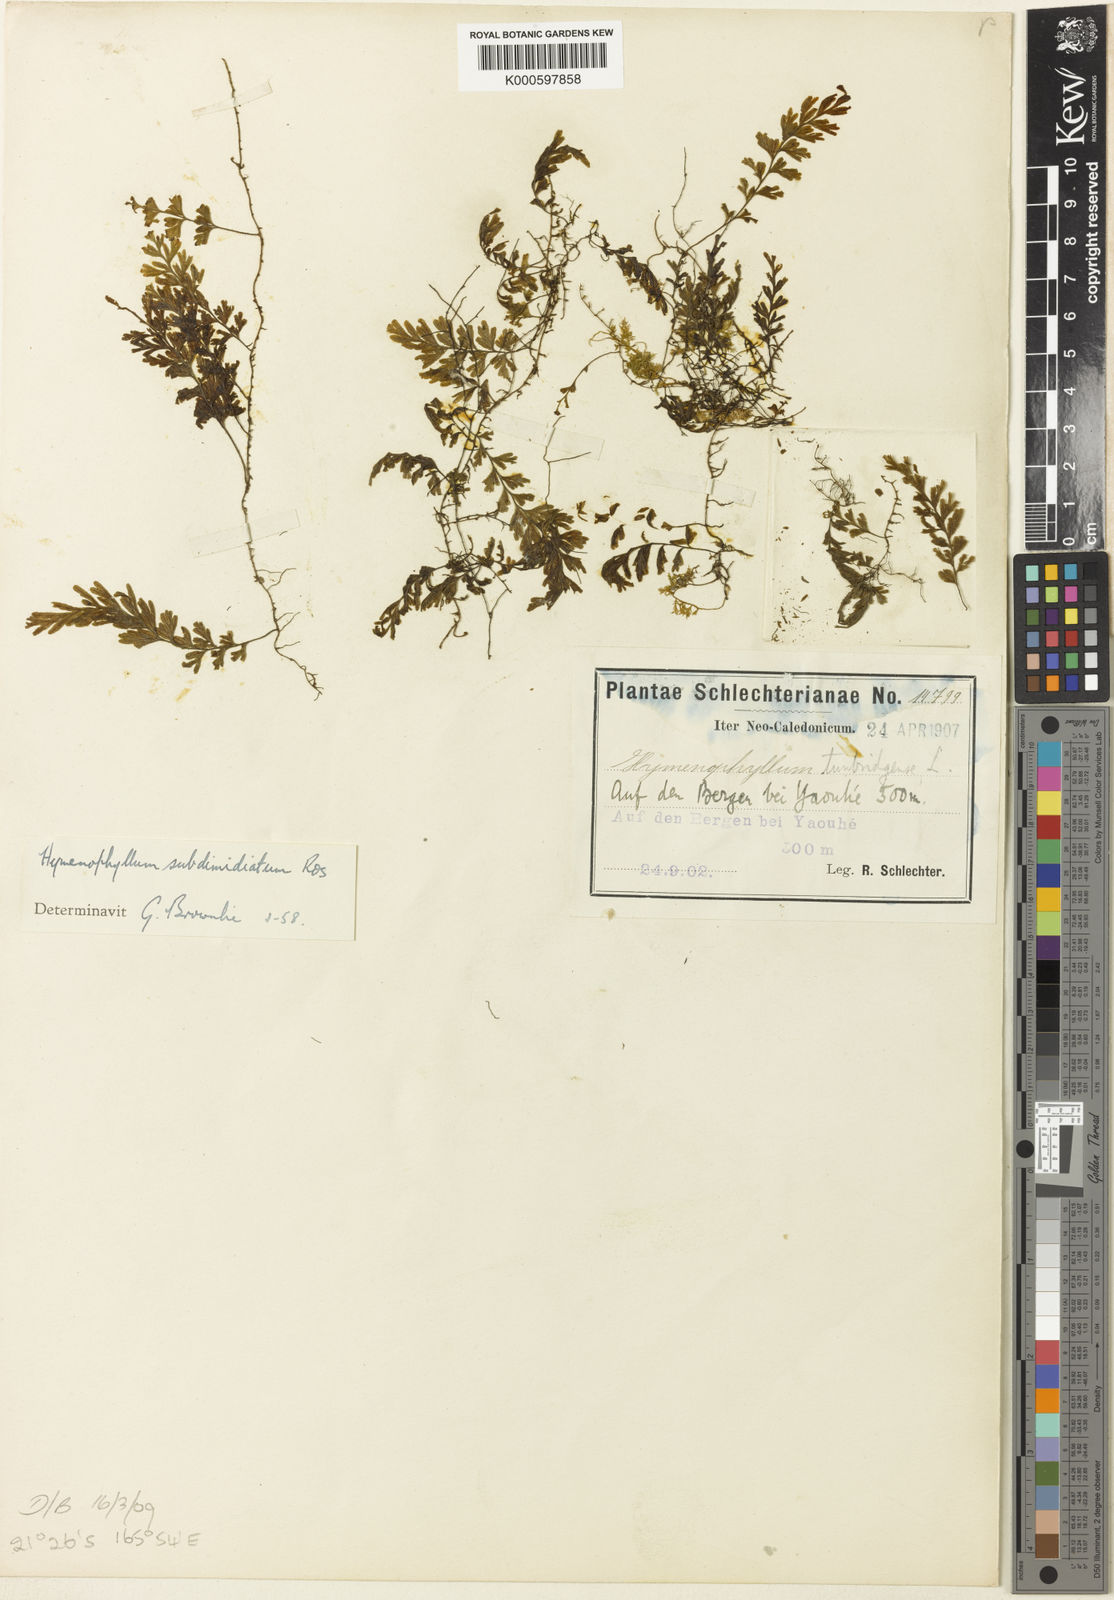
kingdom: Plantae
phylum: Tracheophyta
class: Polypodiopsida
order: Hymenophyllales
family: Hymenophyllaceae
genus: Hymenophyllum
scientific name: Hymenophyllum holochilum
